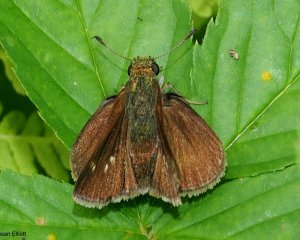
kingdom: Animalia
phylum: Arthropoda
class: Insecta
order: Lepidoptera
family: Hesperiidae
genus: Polites
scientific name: Polites egeremet
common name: Northern Broken-Dash
